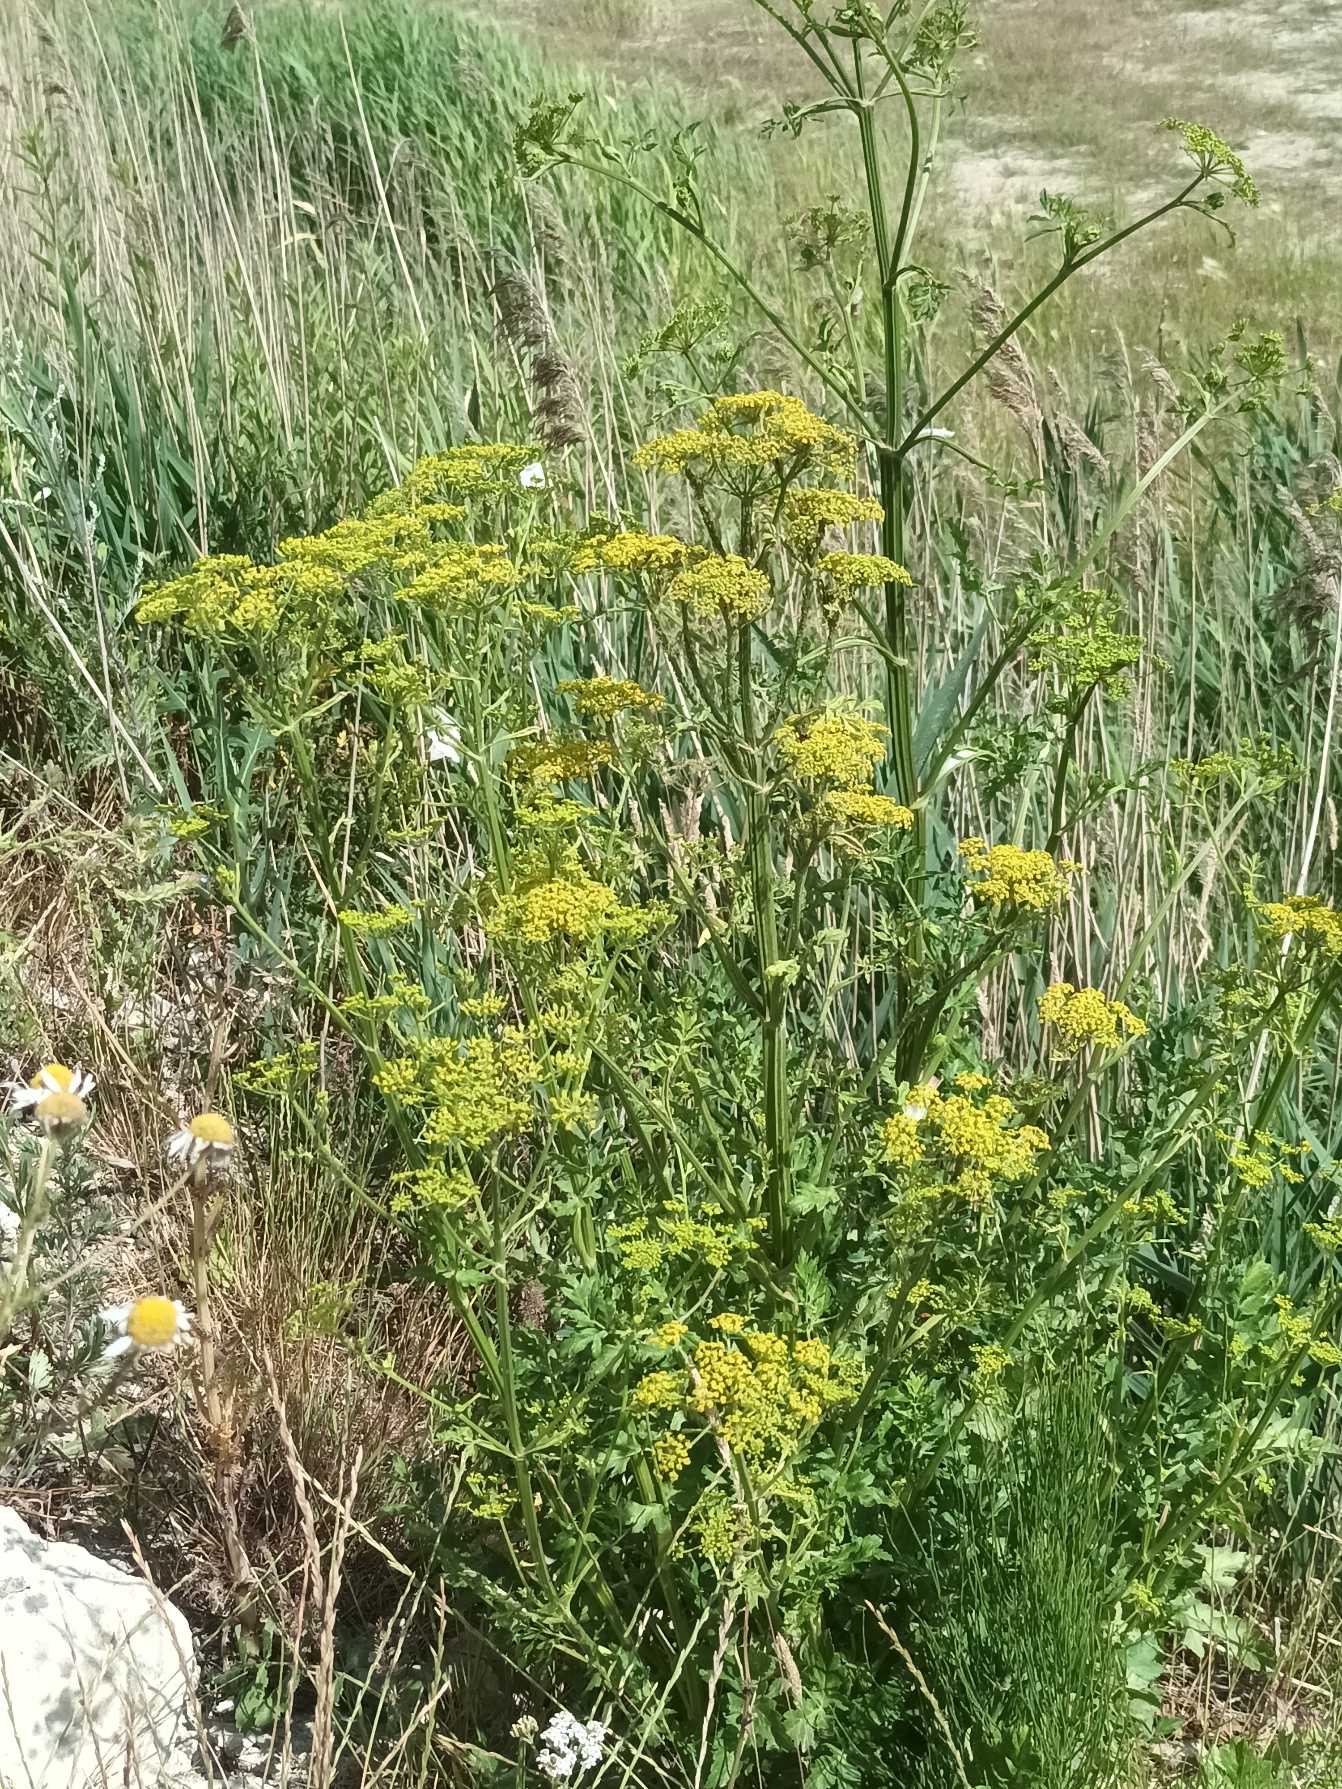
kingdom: Plantae
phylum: Tracheophyta
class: Magnoliopsida
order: Apiales
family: Apiaceae
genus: Pastinaca
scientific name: Pastinaca sativa
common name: Pastinak
